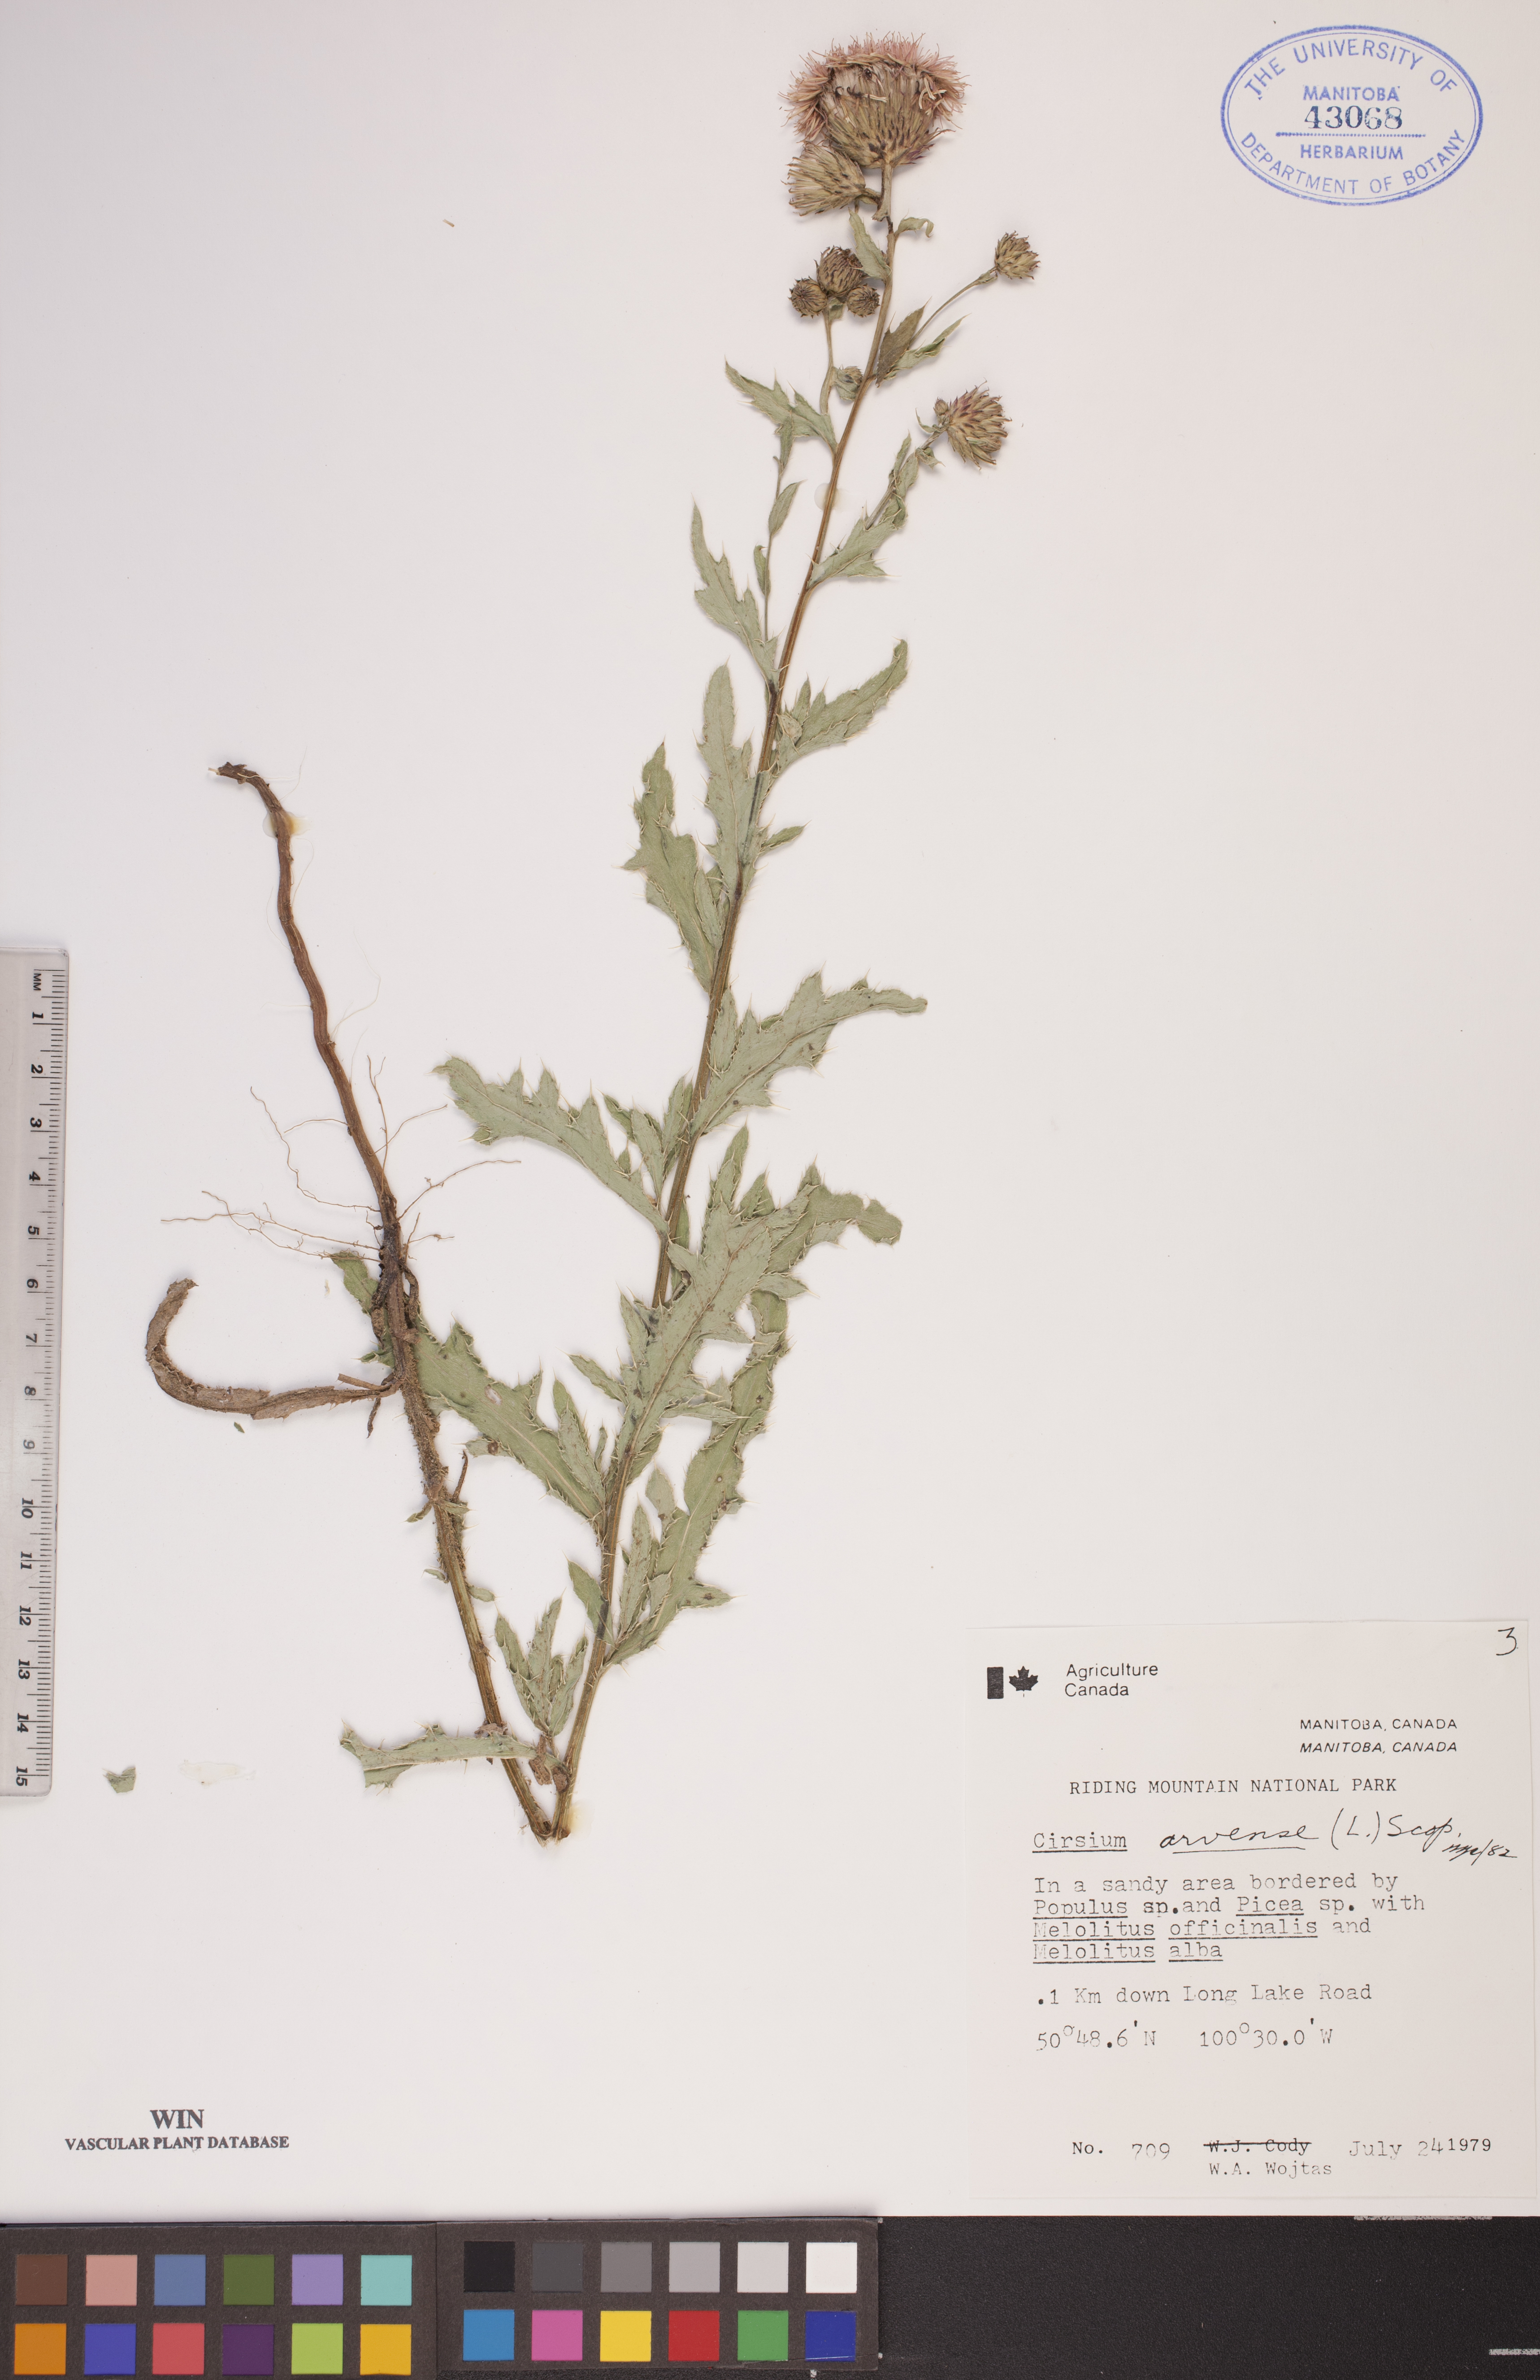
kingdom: Plantae
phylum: Tracheophyta
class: Magnoliopsida
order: Asterales
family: Asteraceae
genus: Cirsium
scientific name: Cirsium arvense
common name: Creeping thistle
